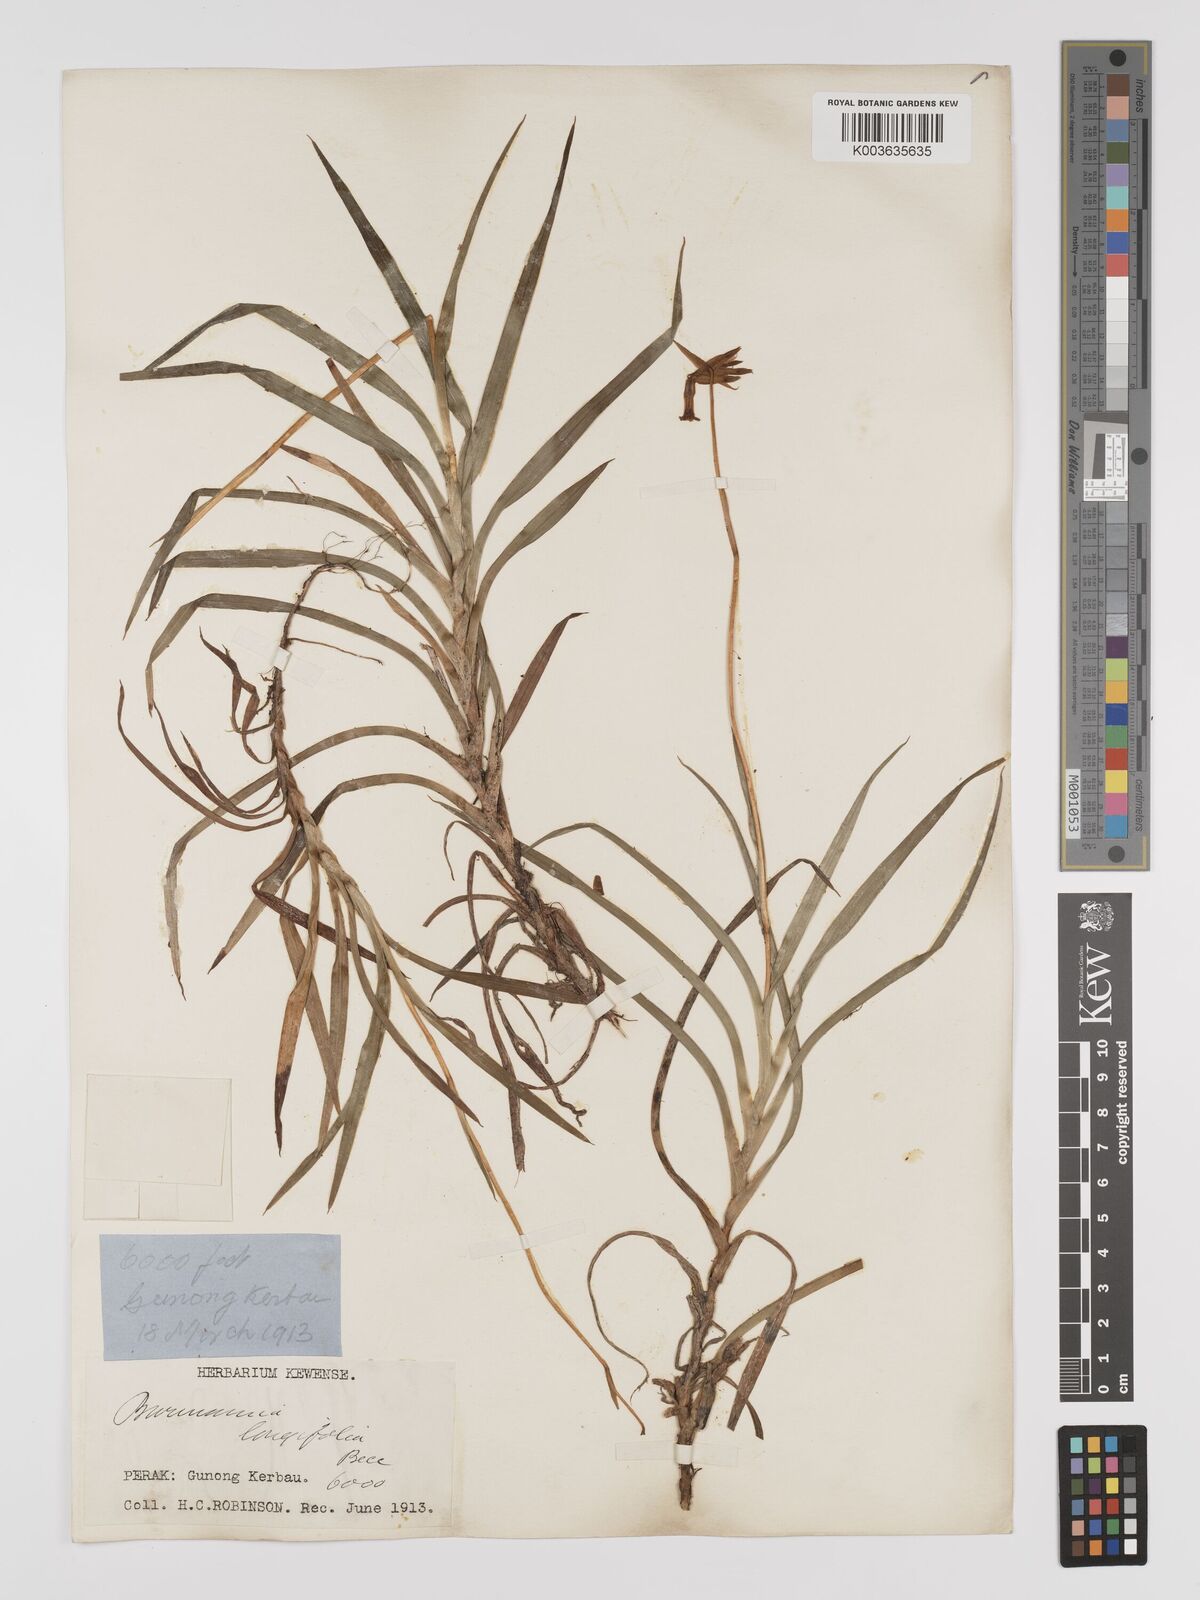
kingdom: Plantae
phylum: Tracheophyta
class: Liliopsida
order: Dioscoreales
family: Burmanniaceae
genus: Burmannia
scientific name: Burmannia longifolia
